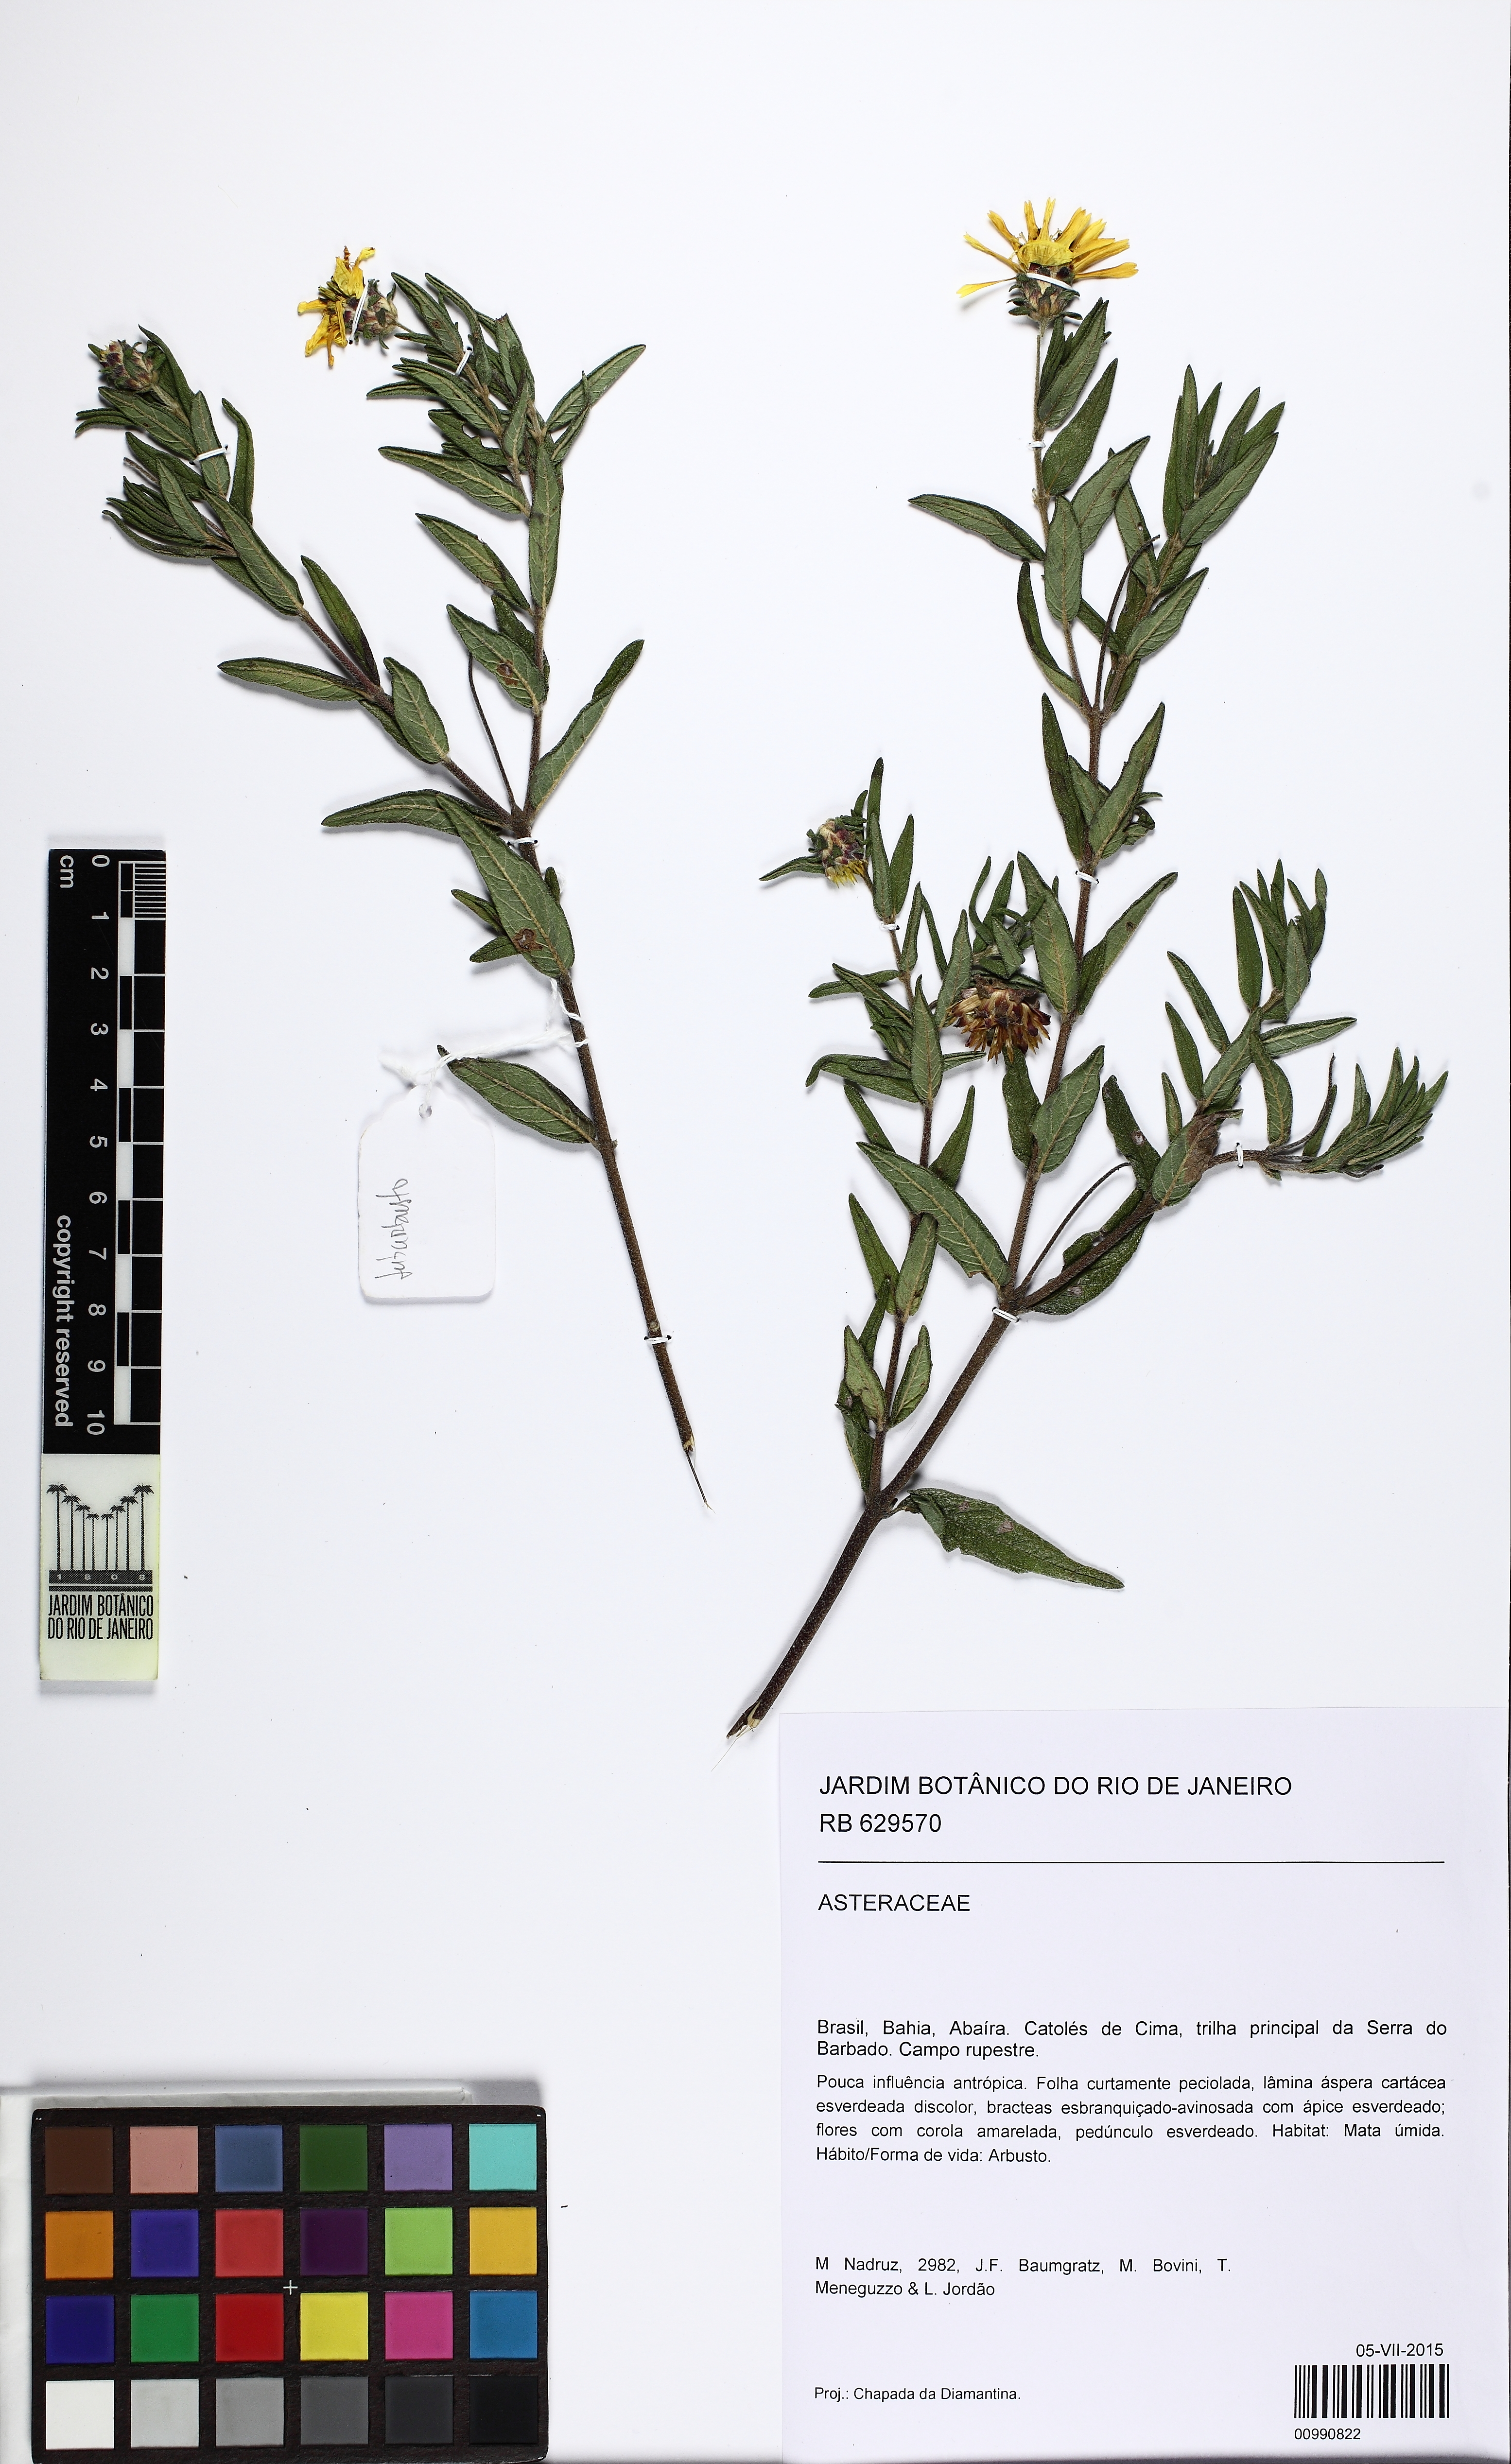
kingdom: Plantae
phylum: Tracheophyta
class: Magnoliopsida
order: Asterales
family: Asteraceae
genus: Aspilia
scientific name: Aspilia
